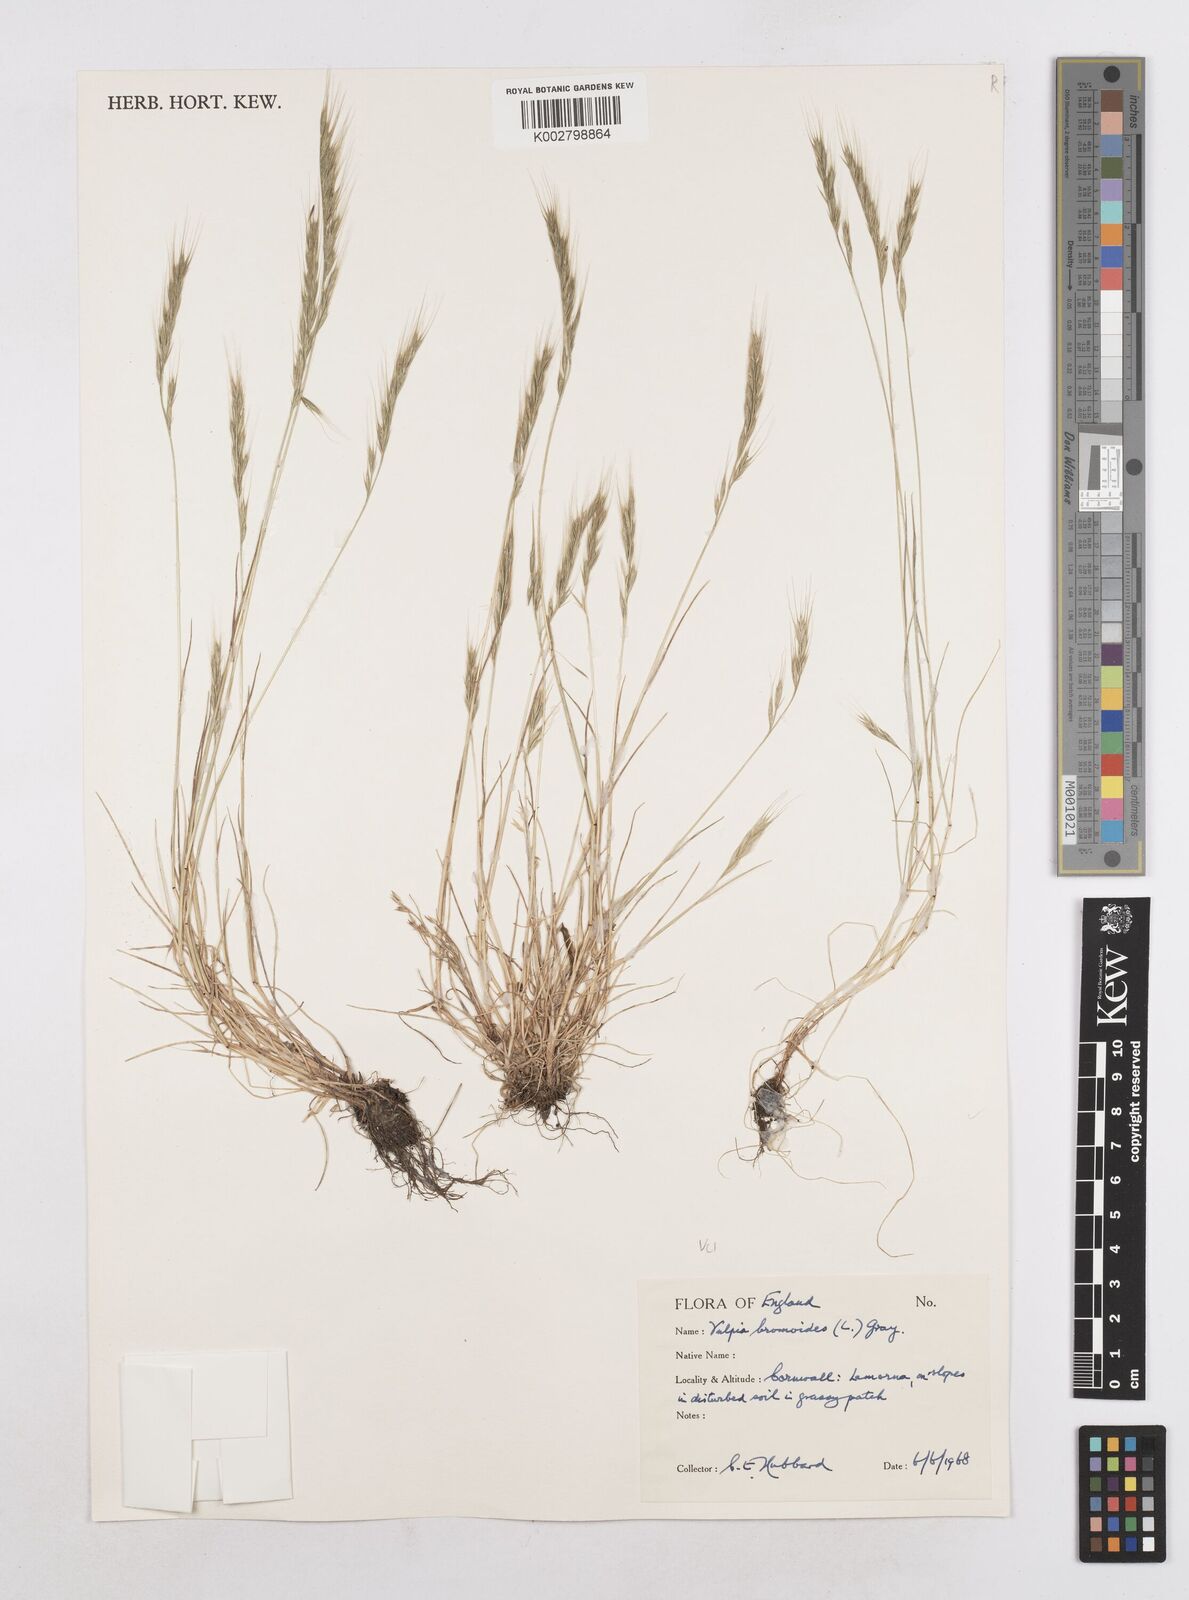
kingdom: Plantae
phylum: Tracheophyta
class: Liliopsida
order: Poales
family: Poaceae
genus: Festuca
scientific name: Festuca bromoides
